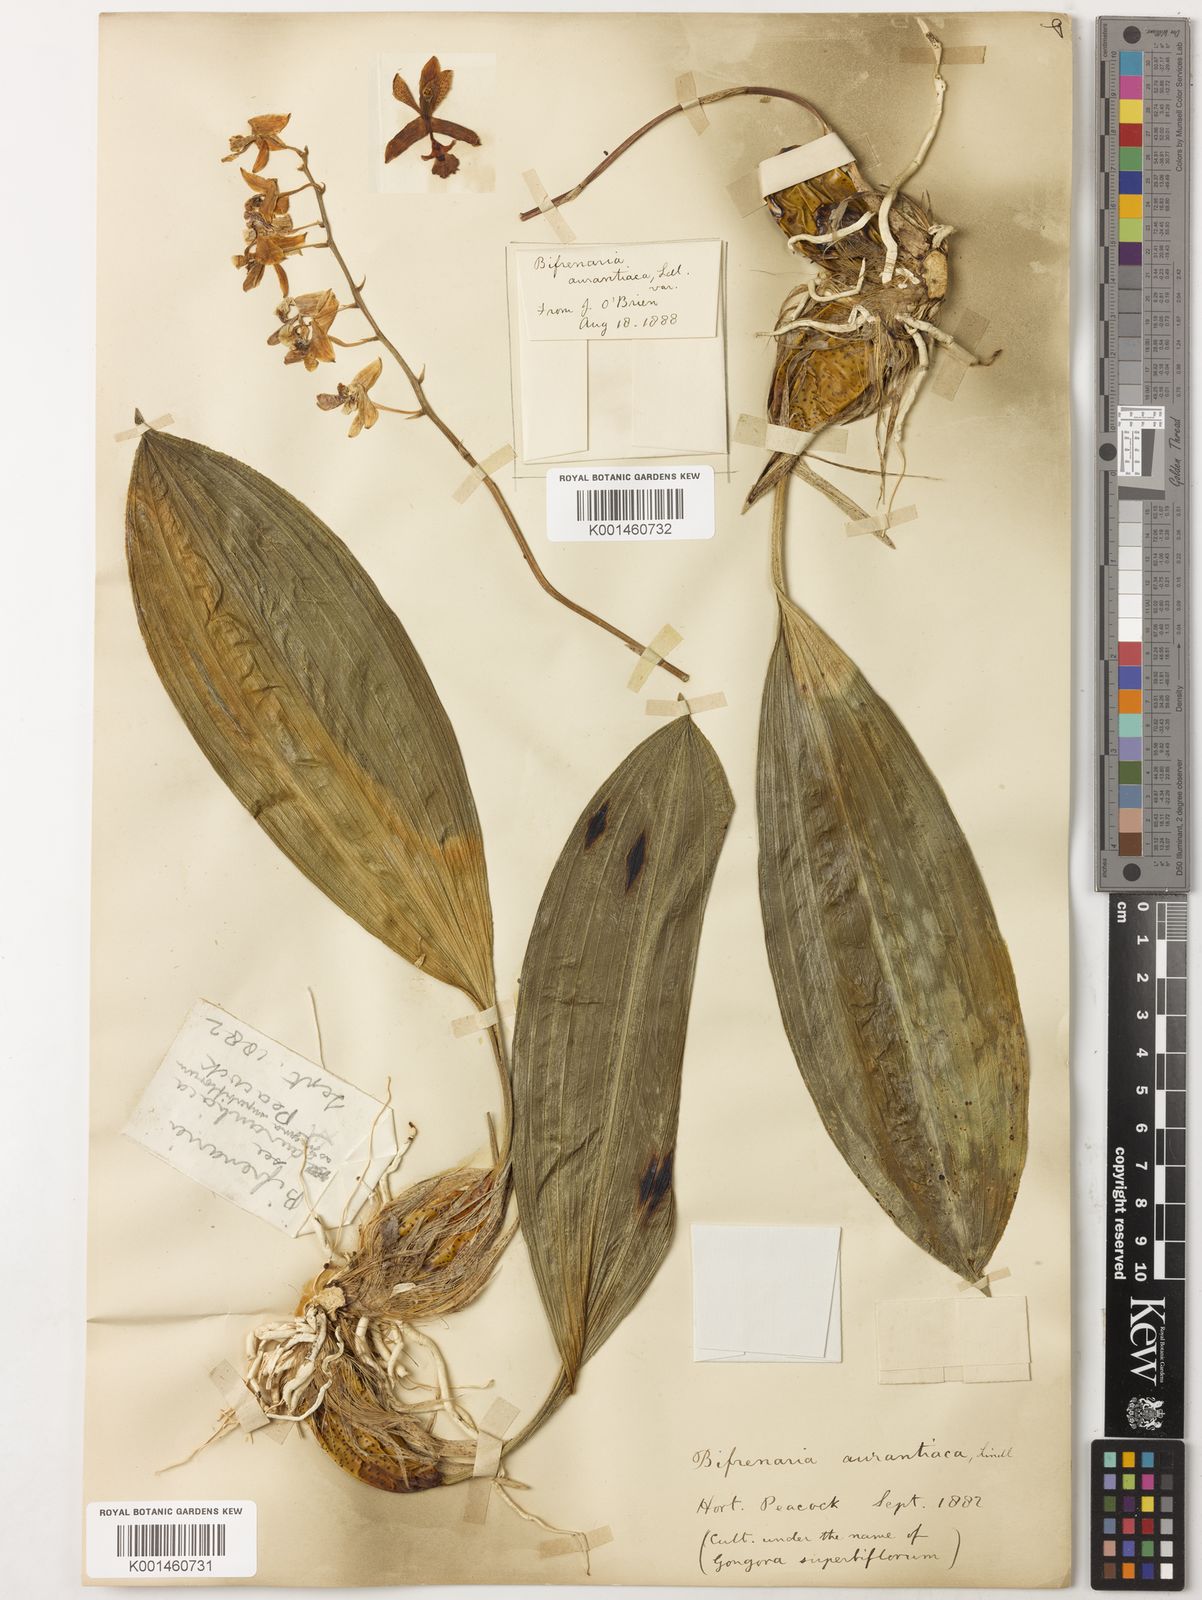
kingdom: Plantae
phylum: Tracheophyta
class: Liliopsida
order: Asparagales
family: Orchidaceae
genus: Rudolfiella
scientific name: Rudolfiella aurantiaca
